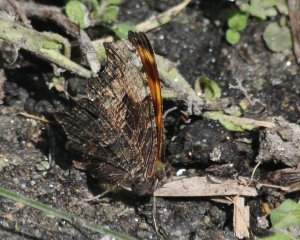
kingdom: Animalia
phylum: Arthropoda
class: Insecta
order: Lepidoptera
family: Nymphalidae
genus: Polygonia
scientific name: Polygonia progne
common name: Gray Comma
